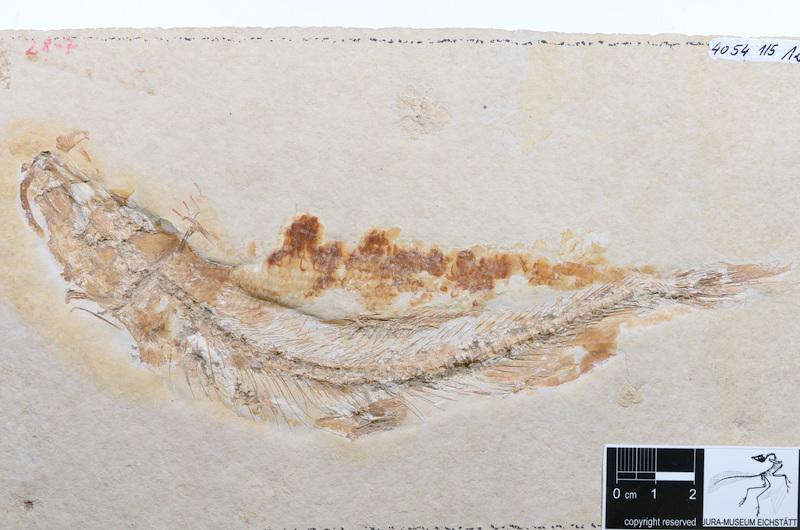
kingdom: Animalia
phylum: Chordata
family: Ascalaboidae
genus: Tharsis
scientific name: Tharsis dubius
